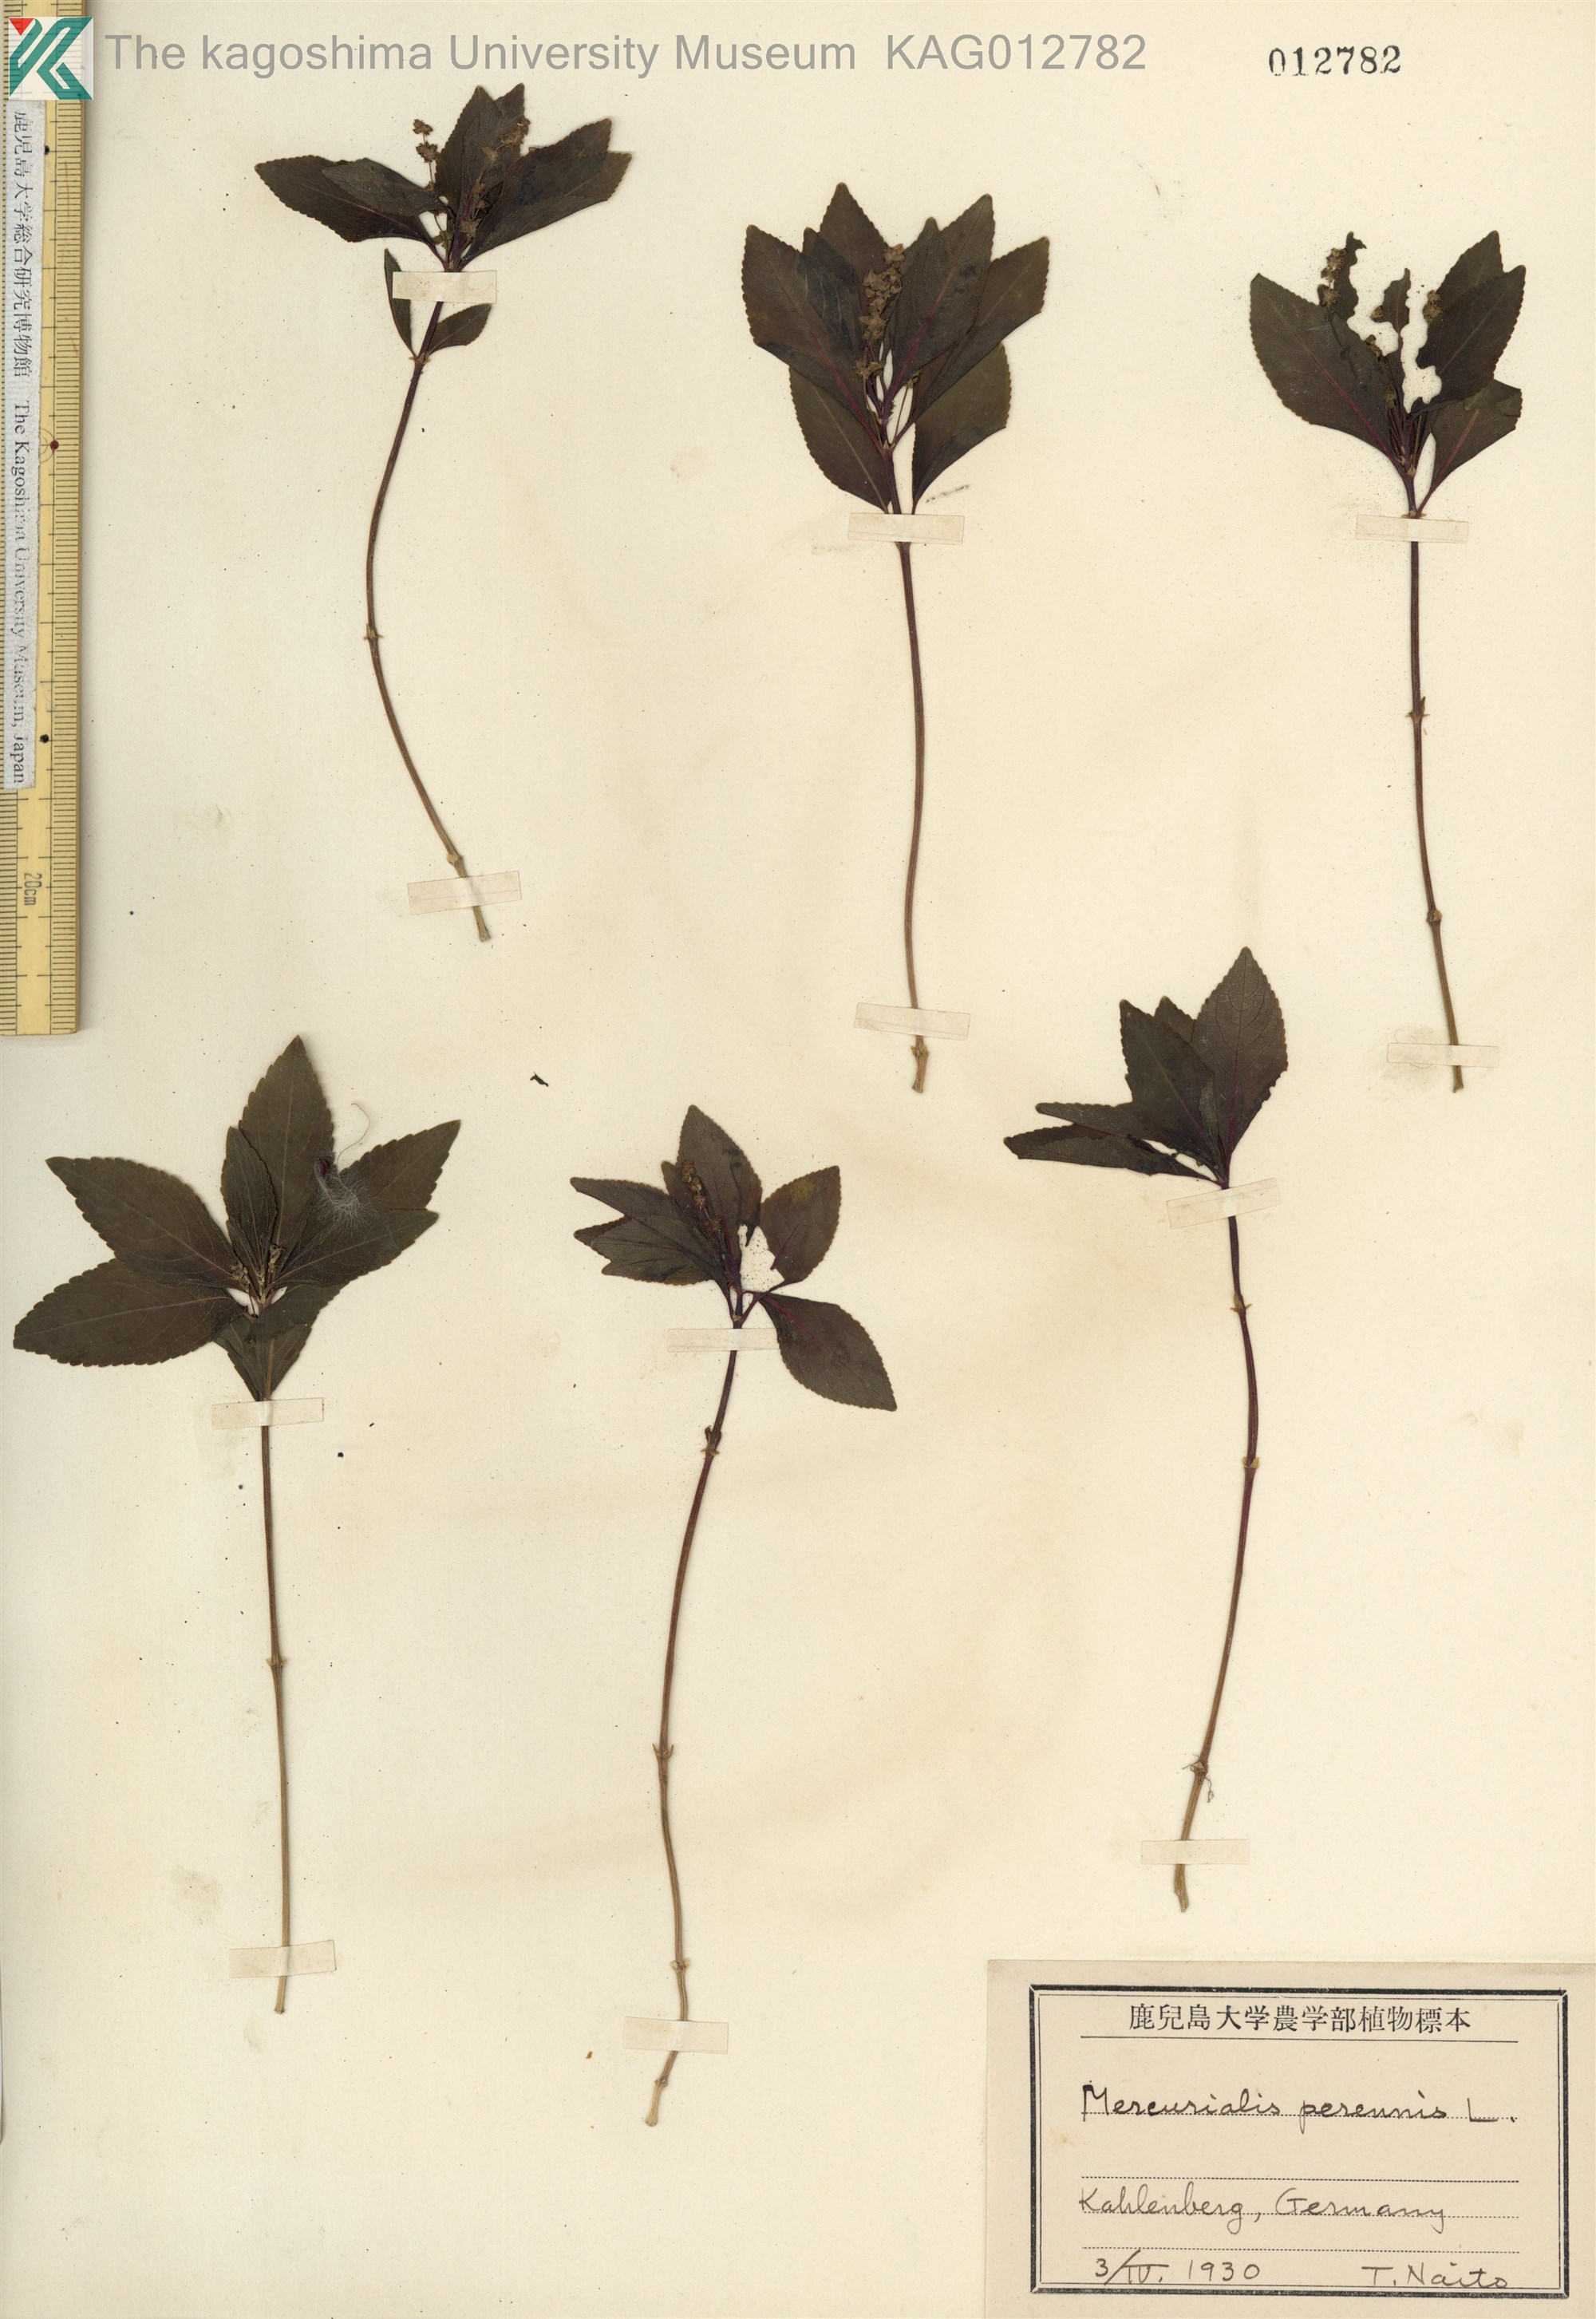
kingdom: Plantae
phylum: Tracheophyta
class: Magnoliopsida
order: Malpighiales
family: Euphorbiaceae
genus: Mercurialis
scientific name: Mercurialis annua
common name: Annual mercury
